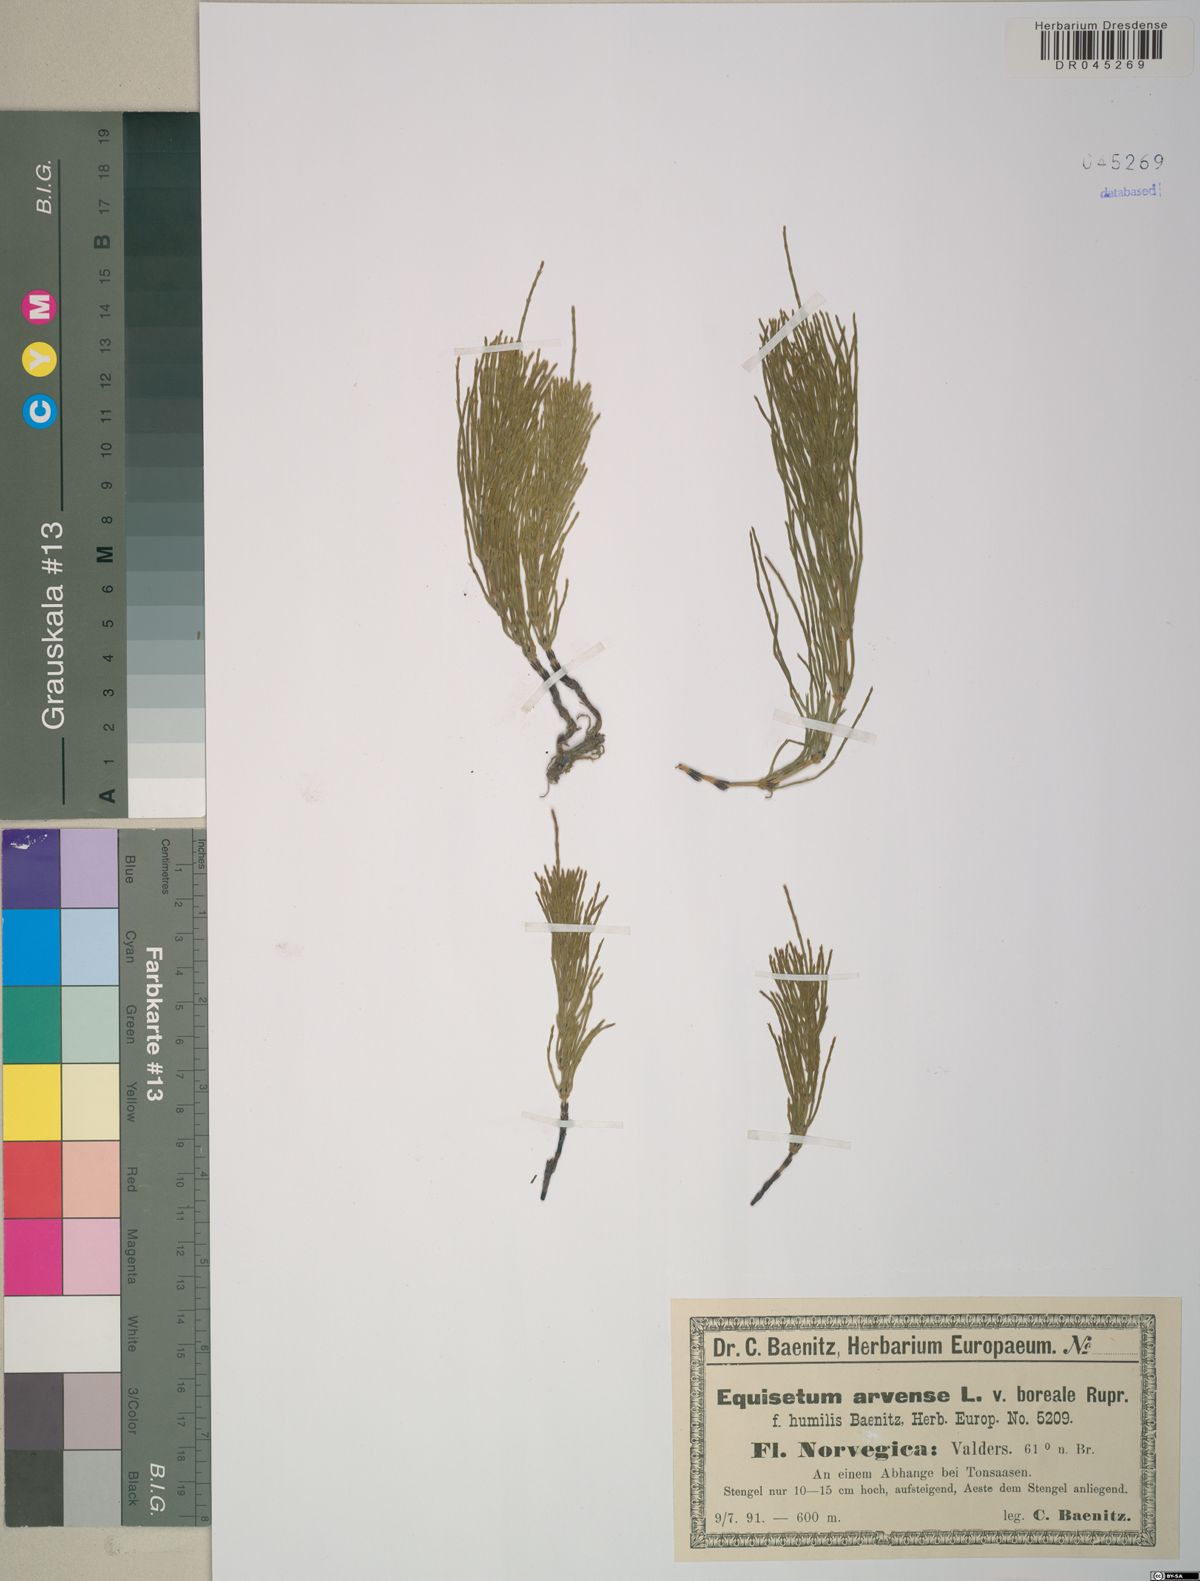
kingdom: Plantae
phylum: Tracheophyta
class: Polypodiopsida
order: Equisetales
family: Equisetaceae
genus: Equisetum
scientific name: Equisetum arvense
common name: Field horsetail
